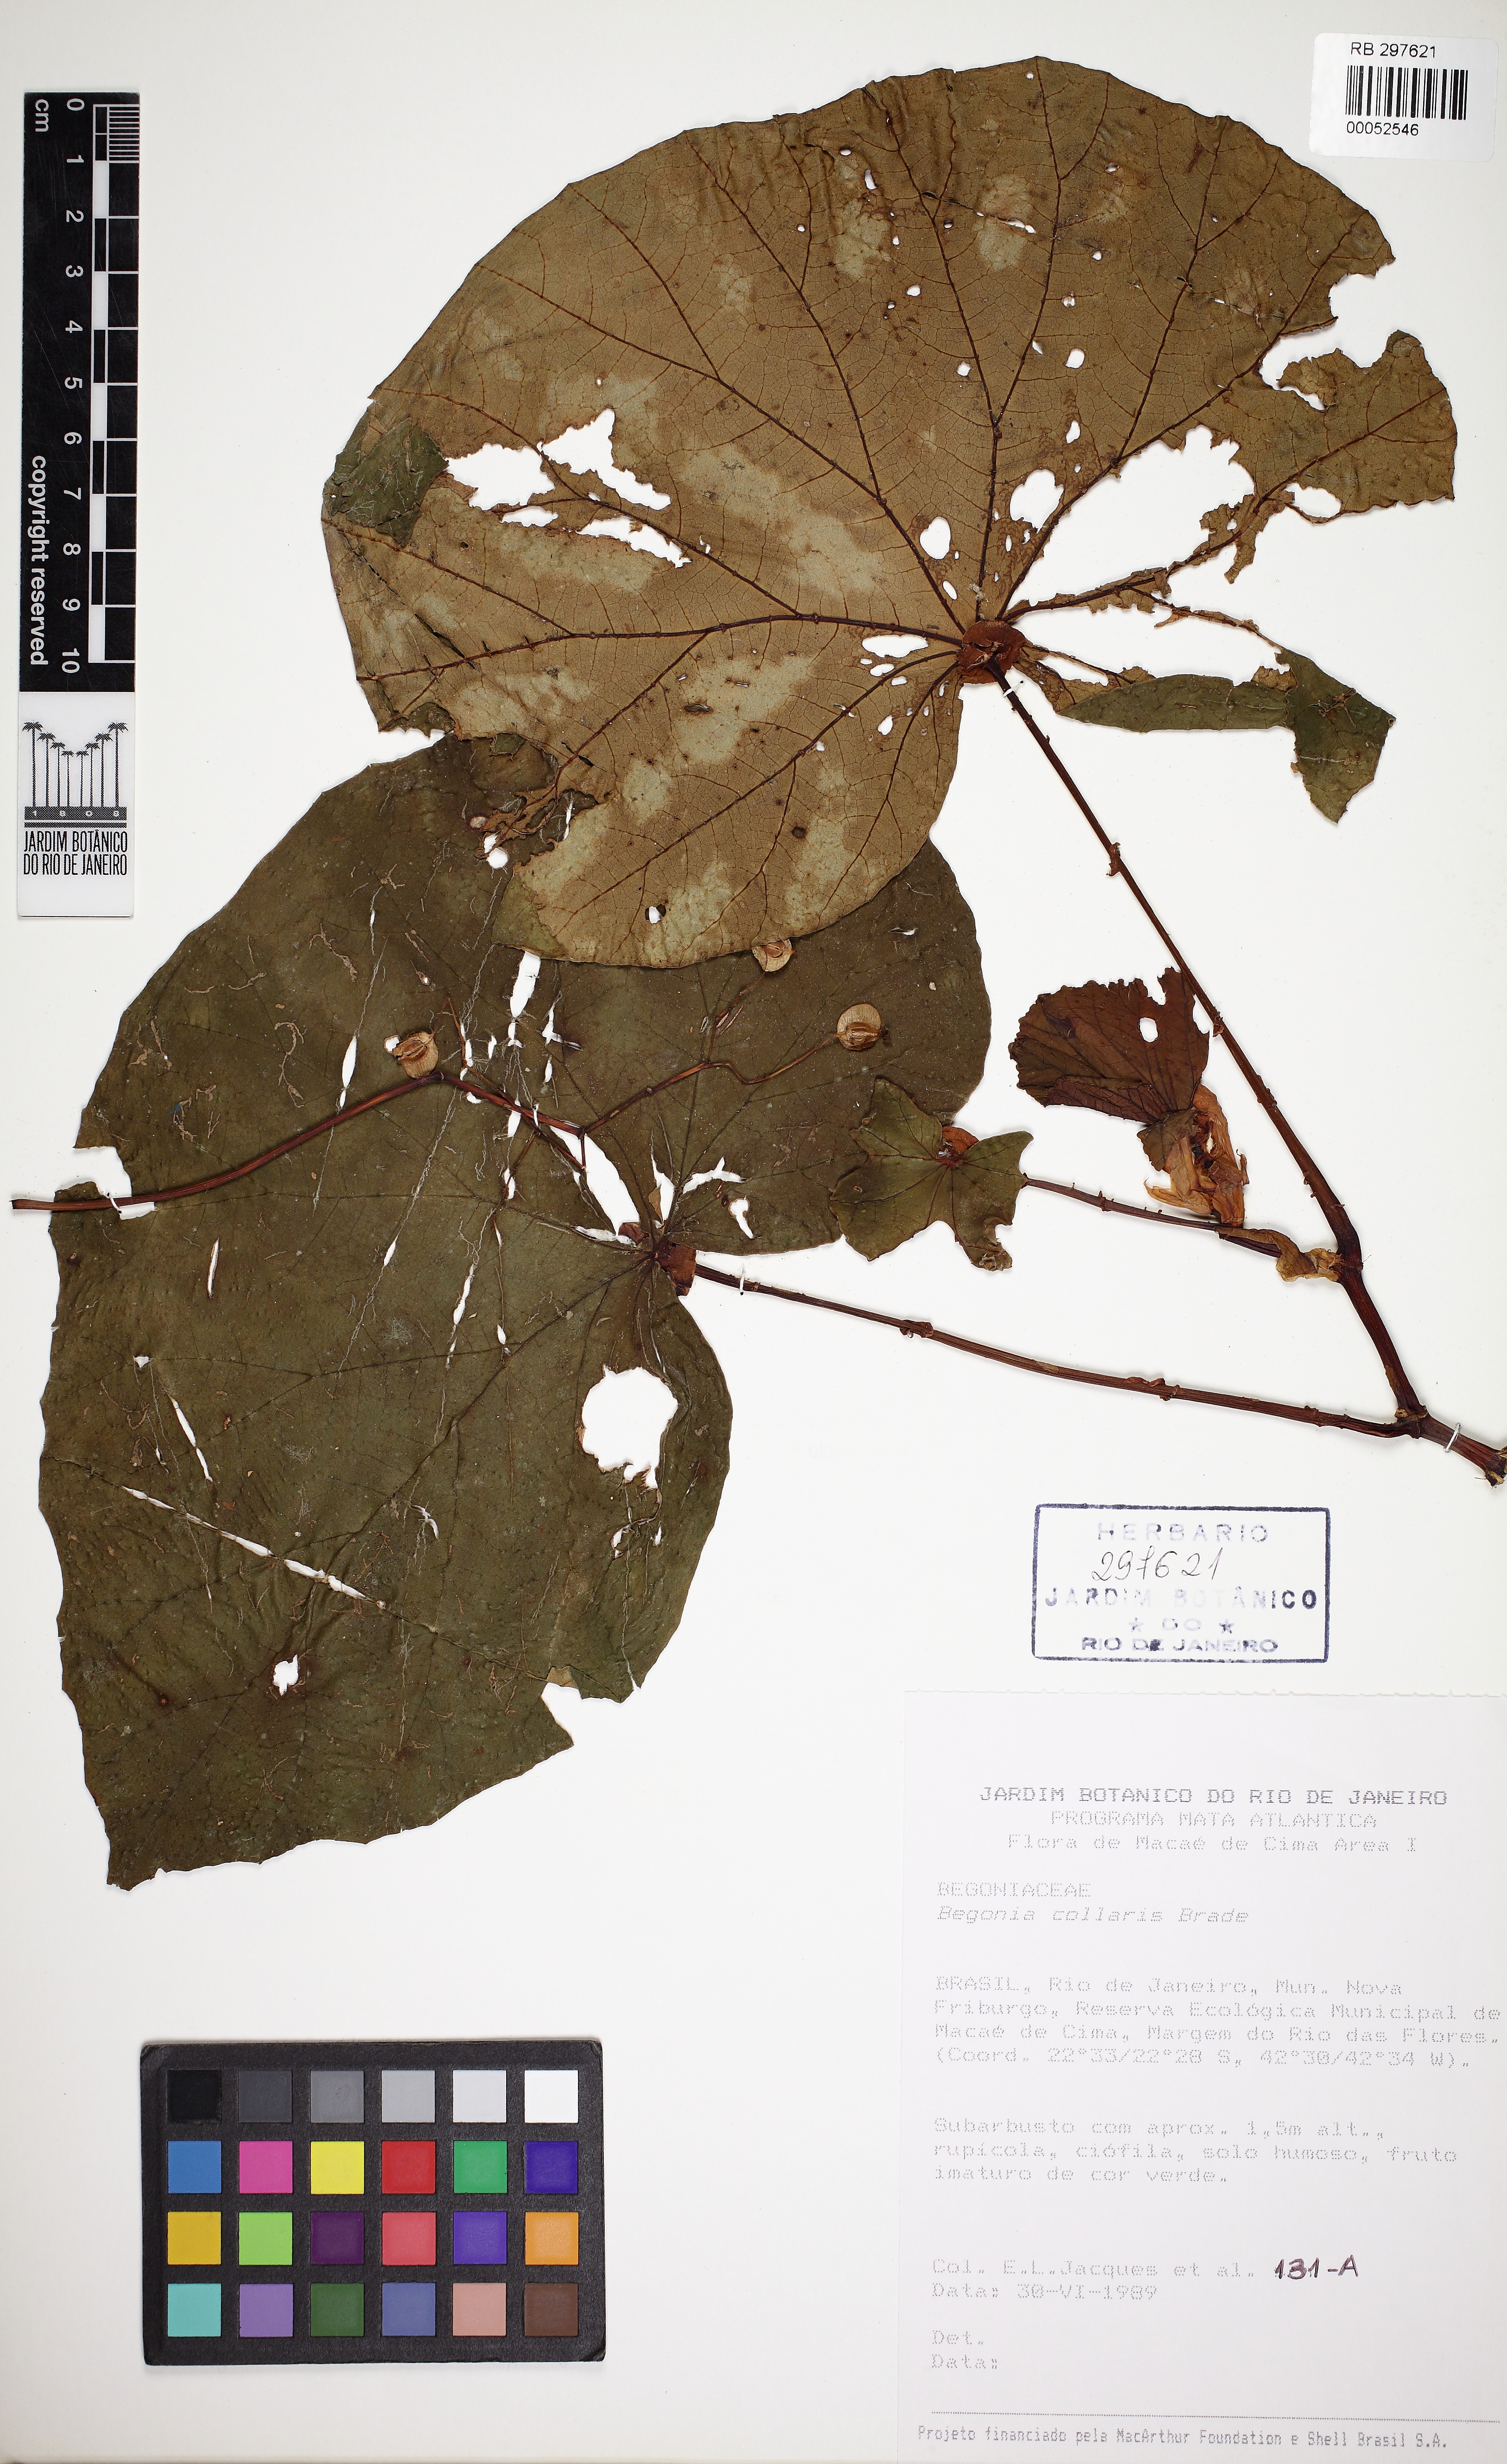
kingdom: Plantae
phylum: Tracheophyta
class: Magnoliopsida
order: Cucurbitales
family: Begoniaceae
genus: Begonia
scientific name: Begonia collaris
